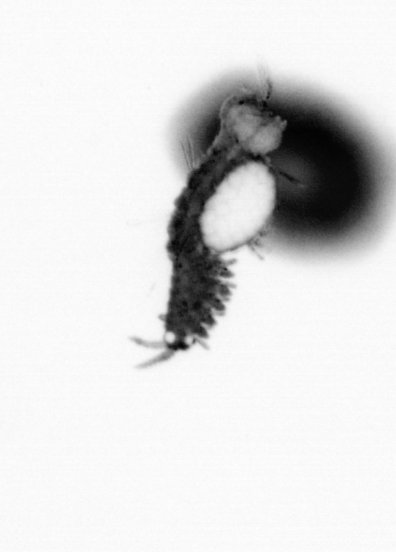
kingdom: Animalia
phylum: Annelida
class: Polychaeta
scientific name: Polychaeta
